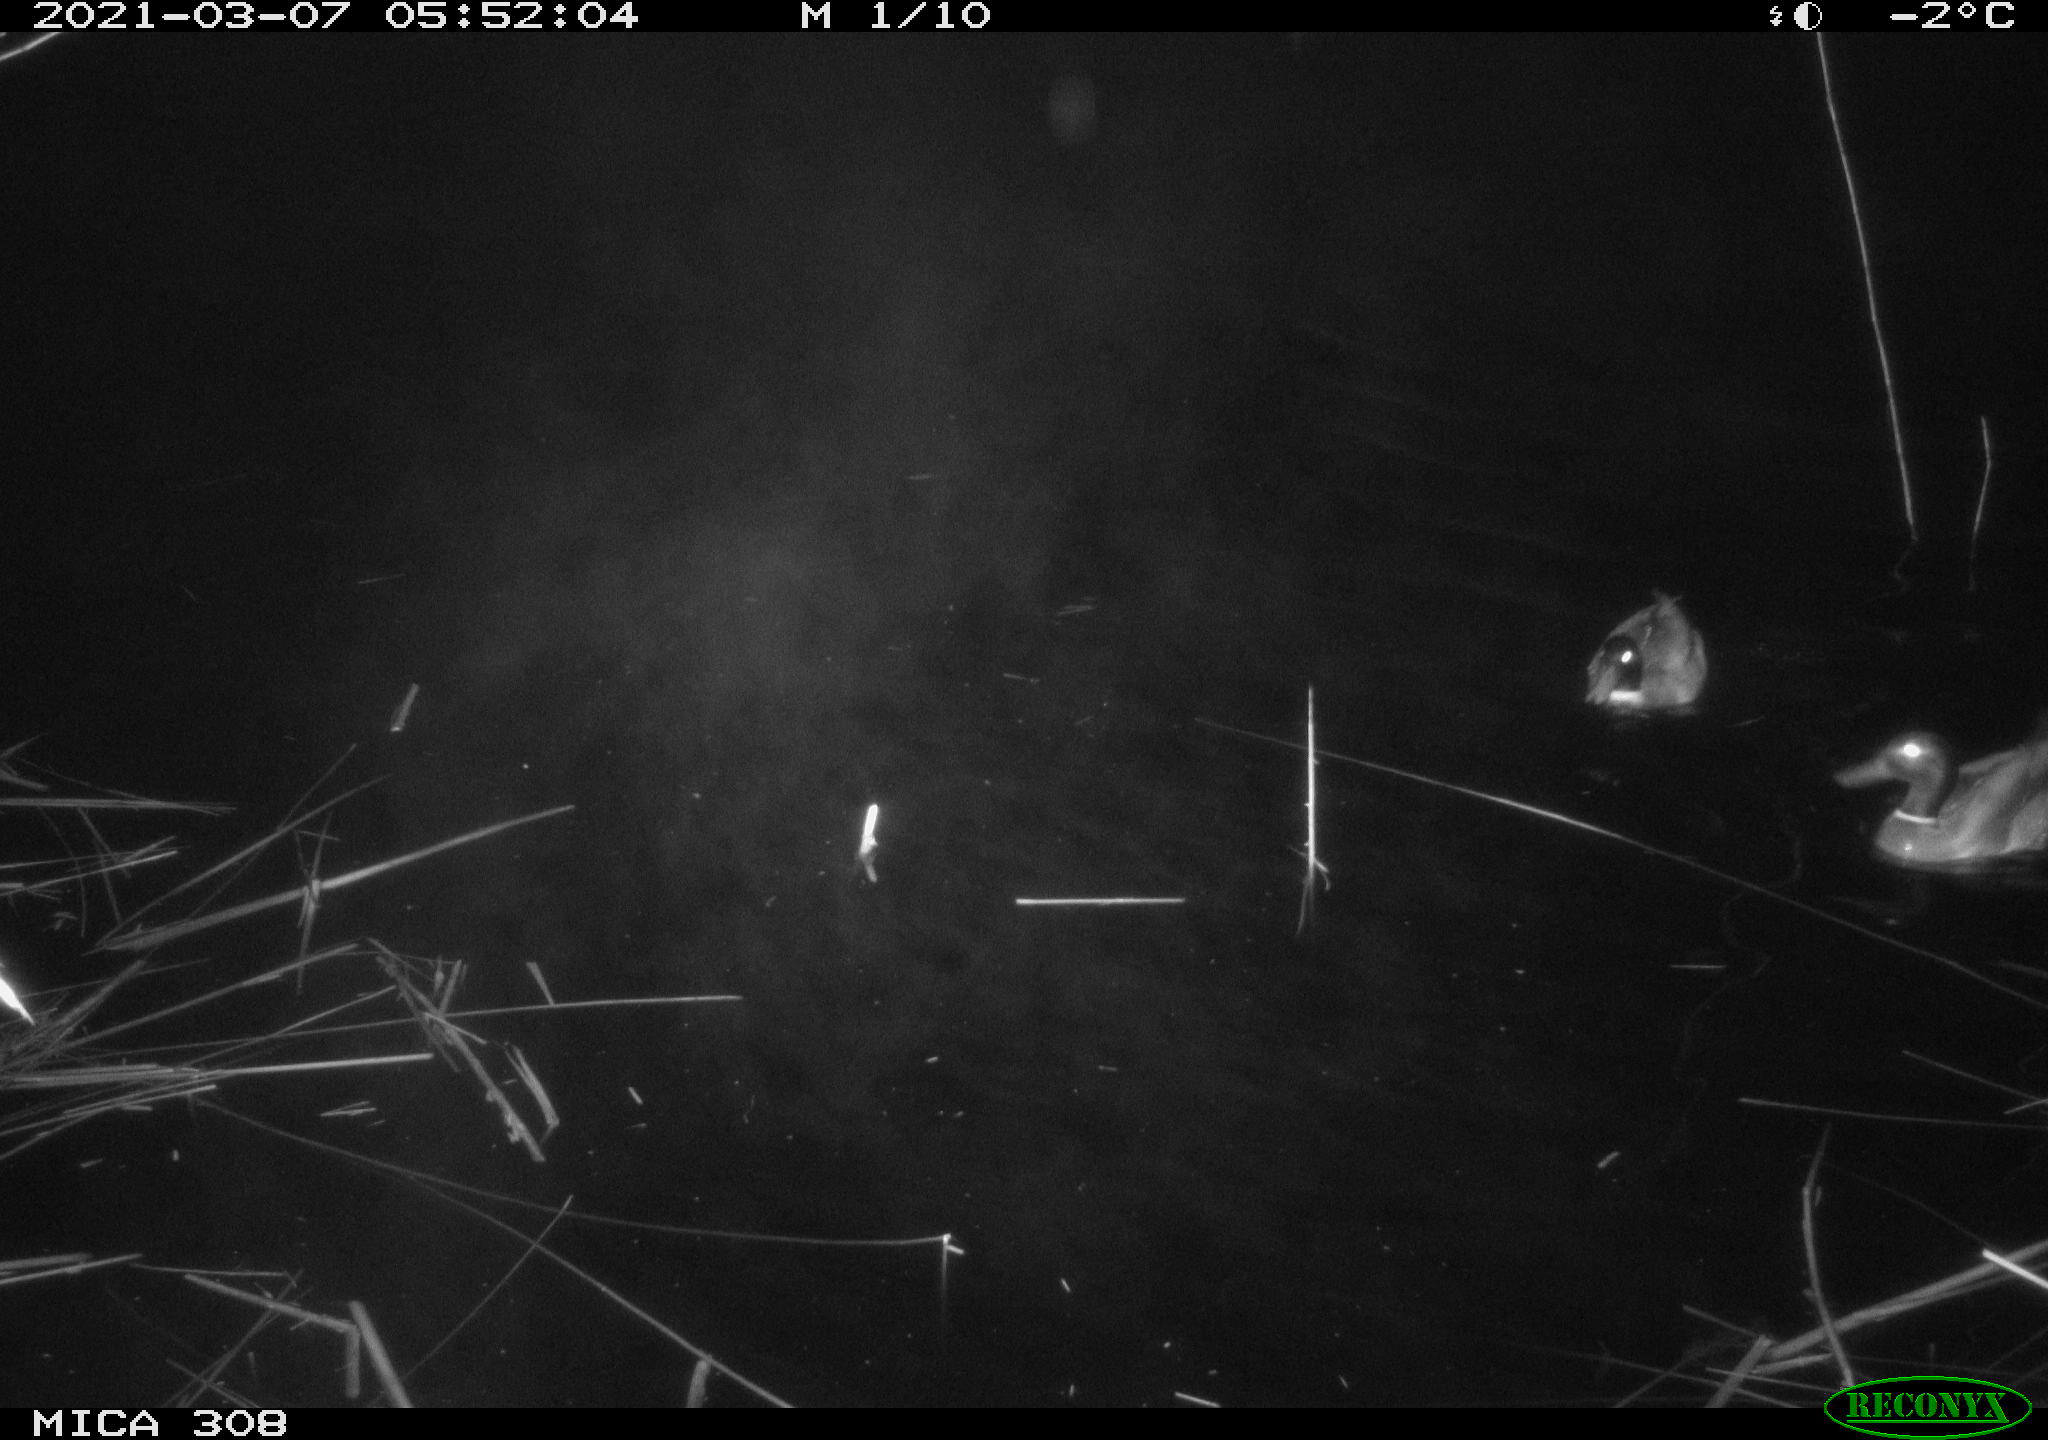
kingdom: Animalia
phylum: Chordata
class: Aves
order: Anseriformes
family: Anatidae
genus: Anas
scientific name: Anas platyrhynchos
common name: Mallard
